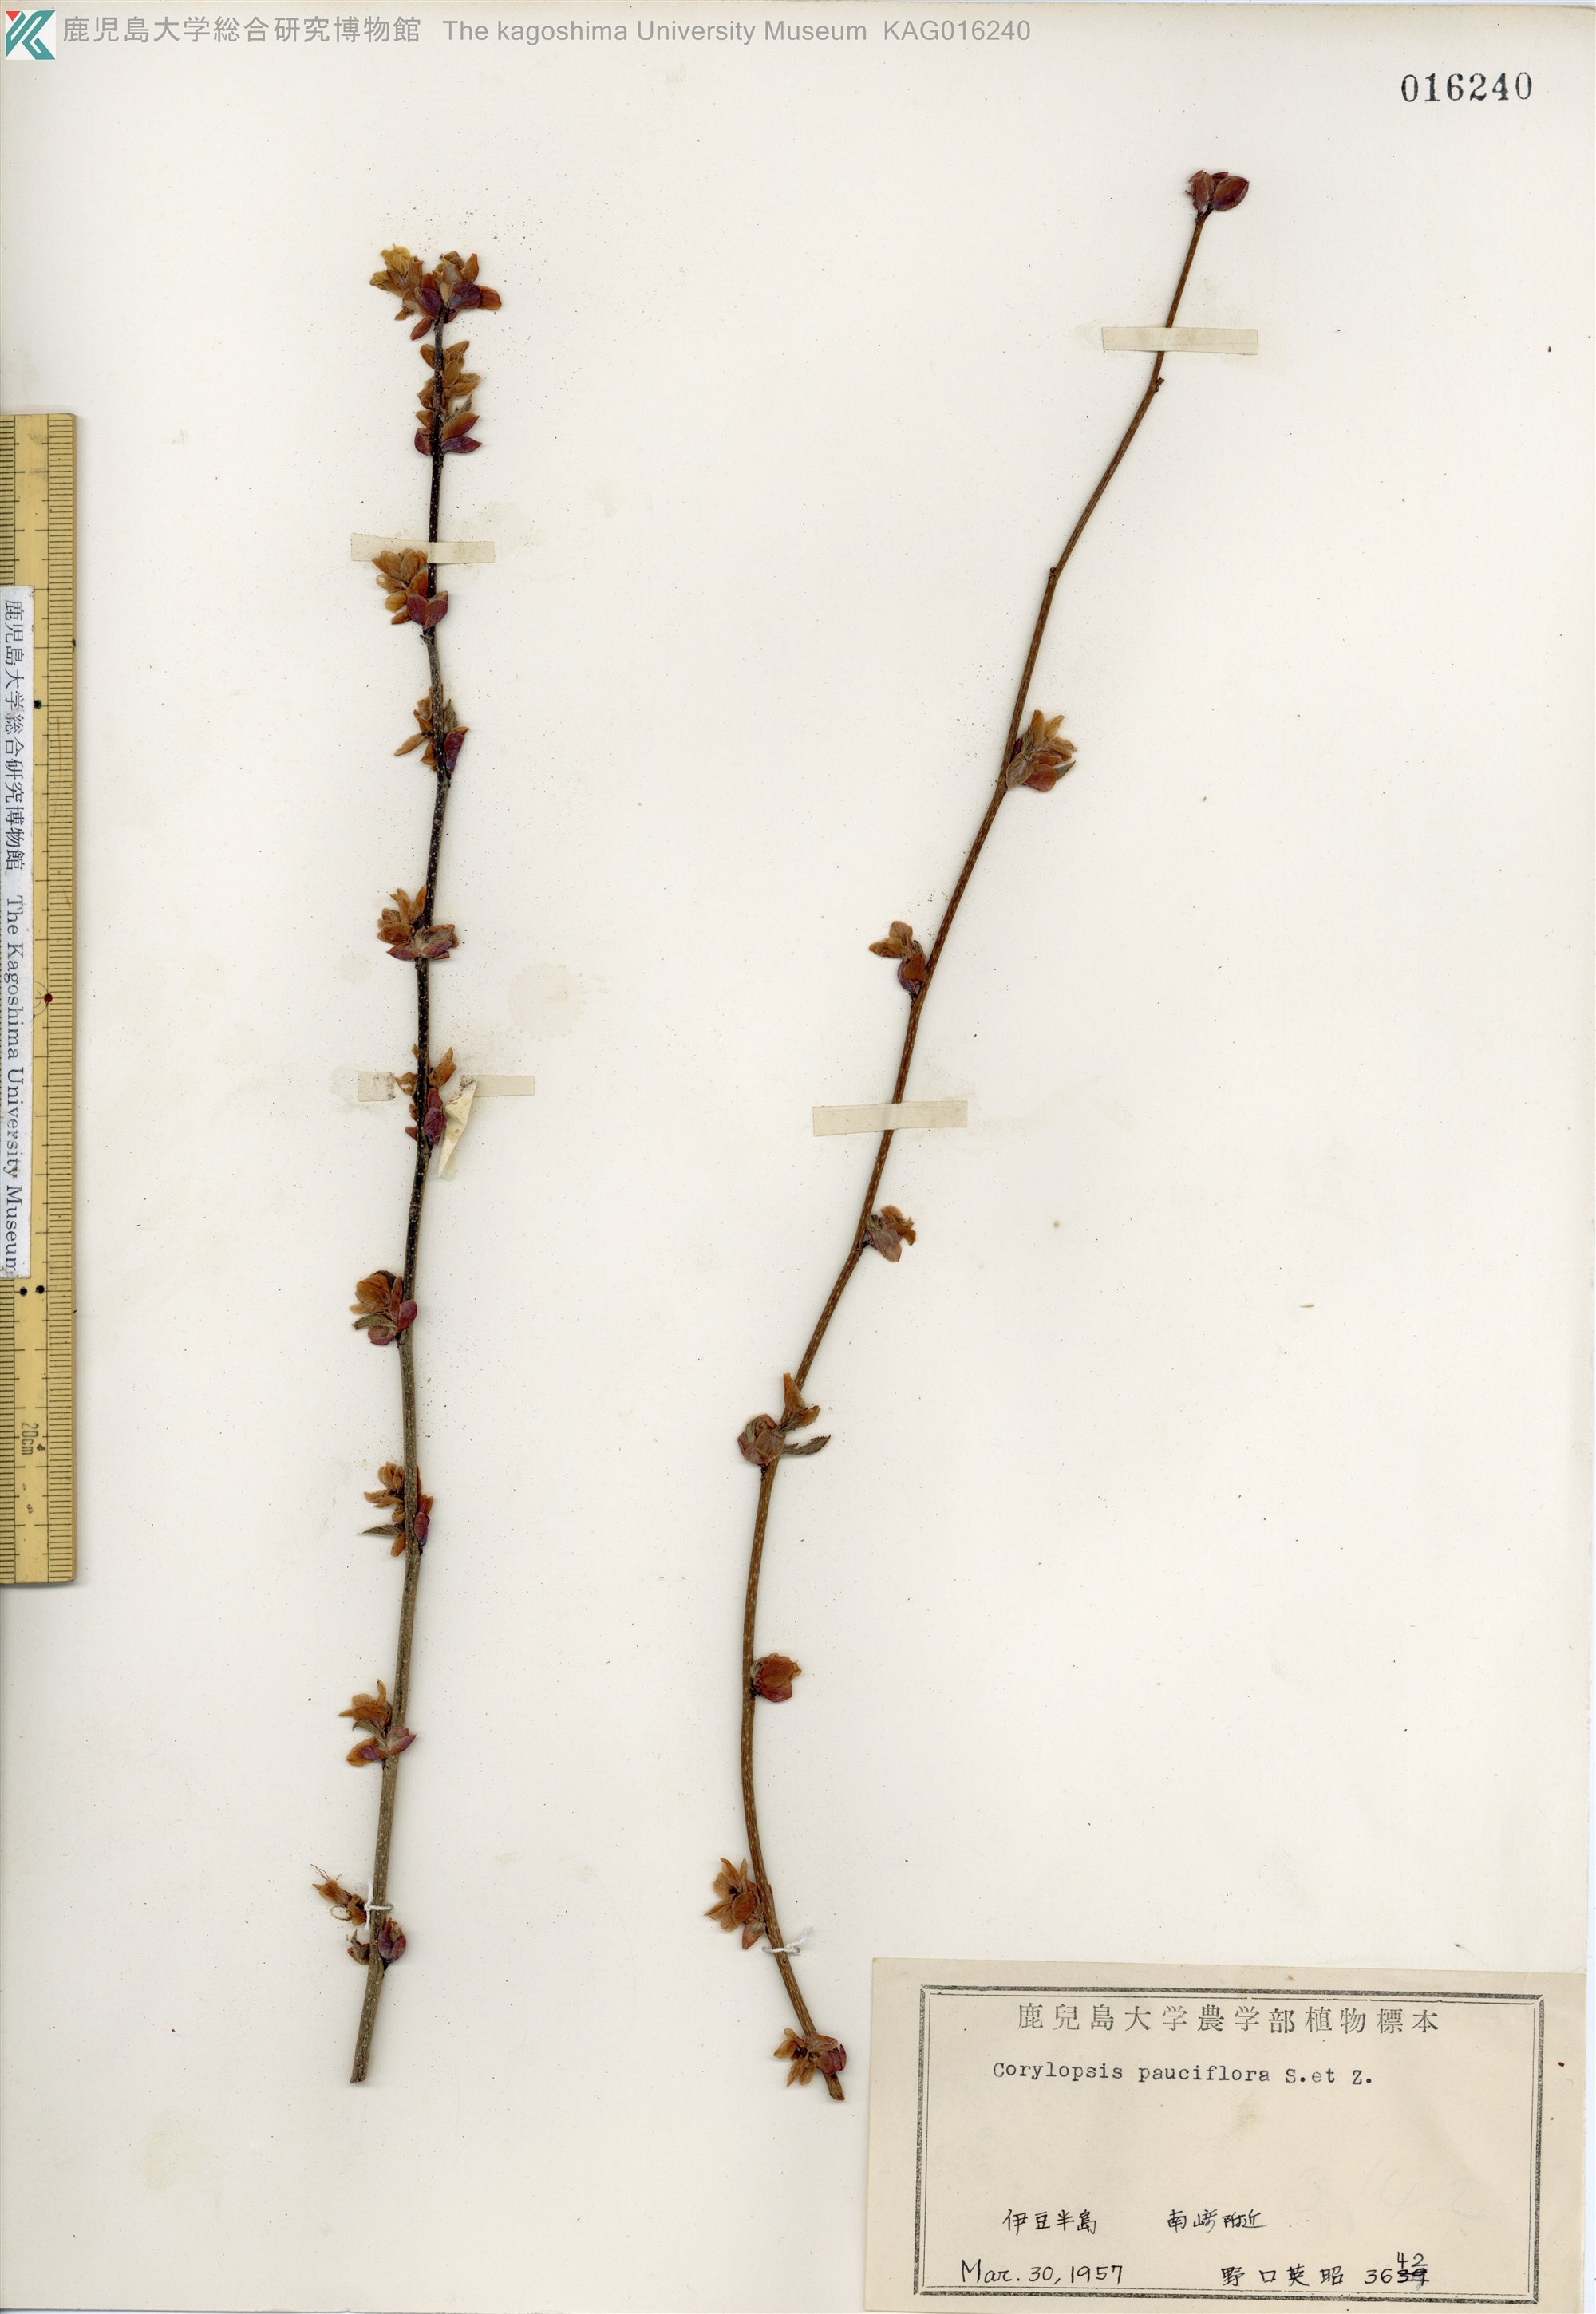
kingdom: Plantae
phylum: Tracheophyta
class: Magnoliopsida
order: Saxifragales
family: Hamamelidaceae
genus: Corylopsis
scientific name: Corylopsis pauciflora
